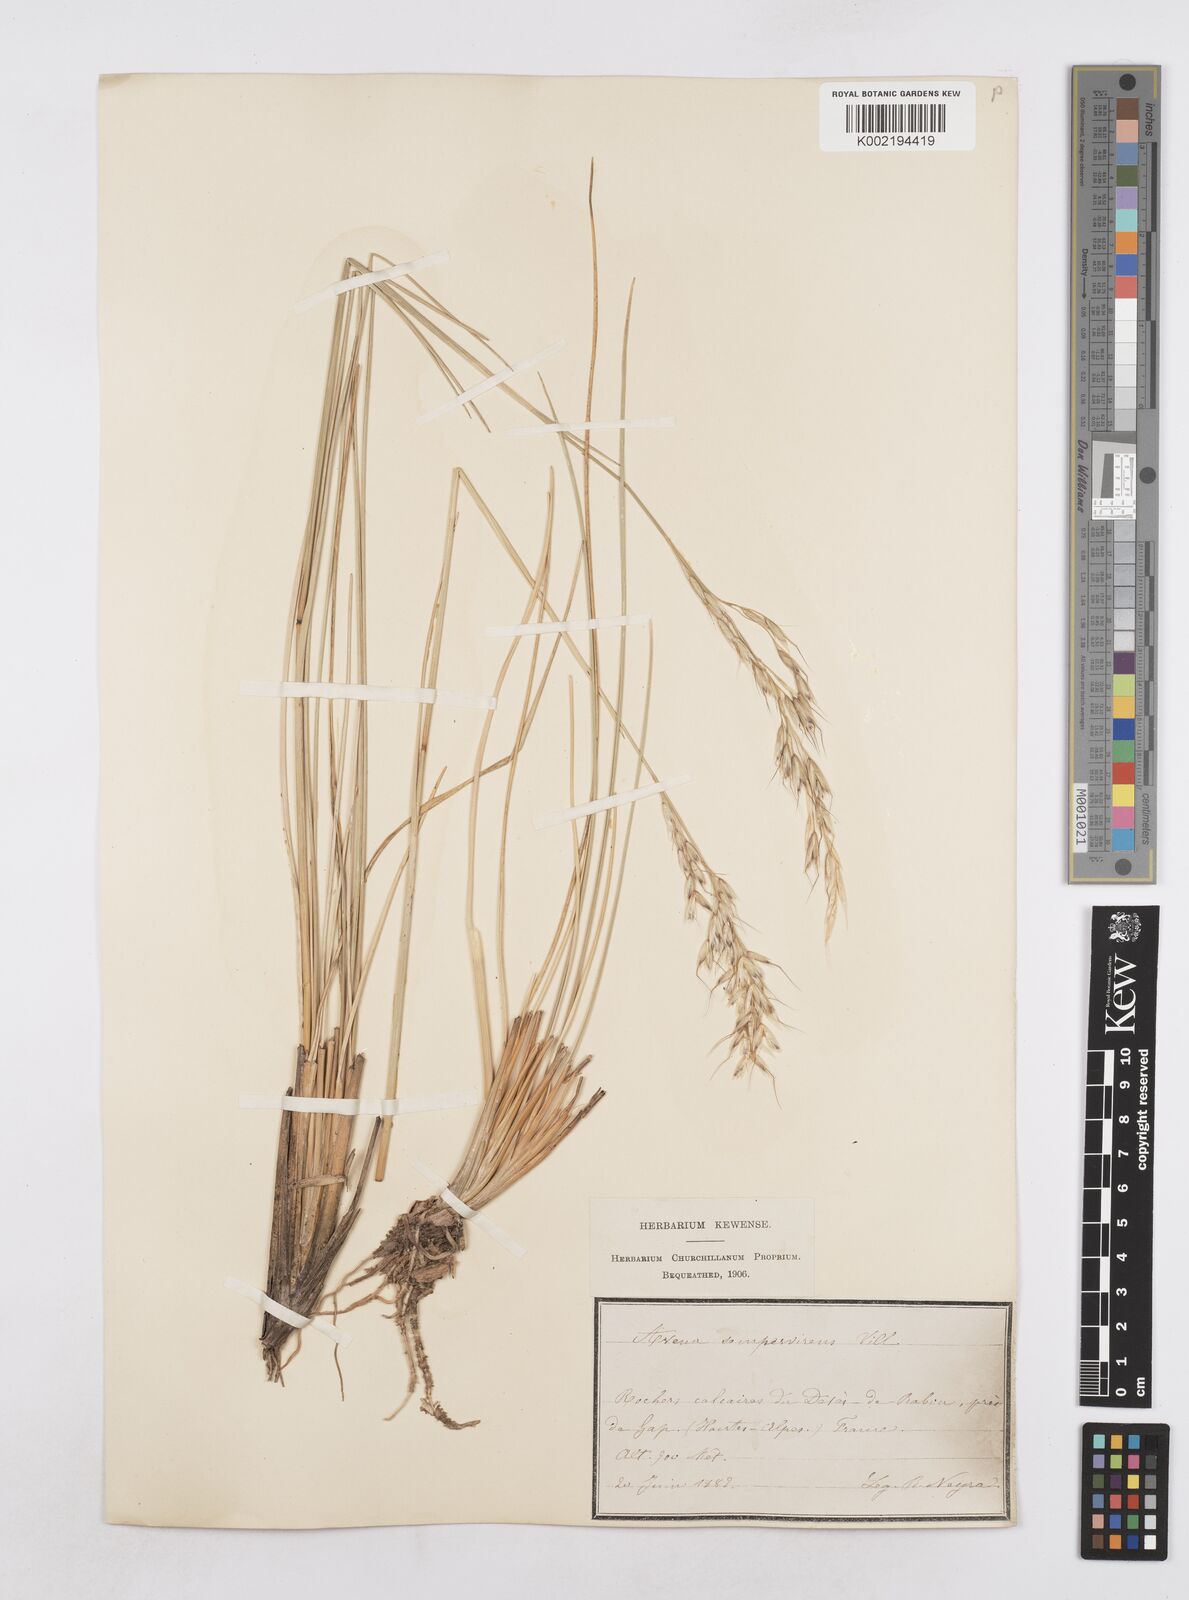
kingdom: Plantae
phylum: Tracheophyta
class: Liliopsida
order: Poales
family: Poaceae
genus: Helictotrichon
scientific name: Helictotrichon sempervirens
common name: Blue oat-grass
